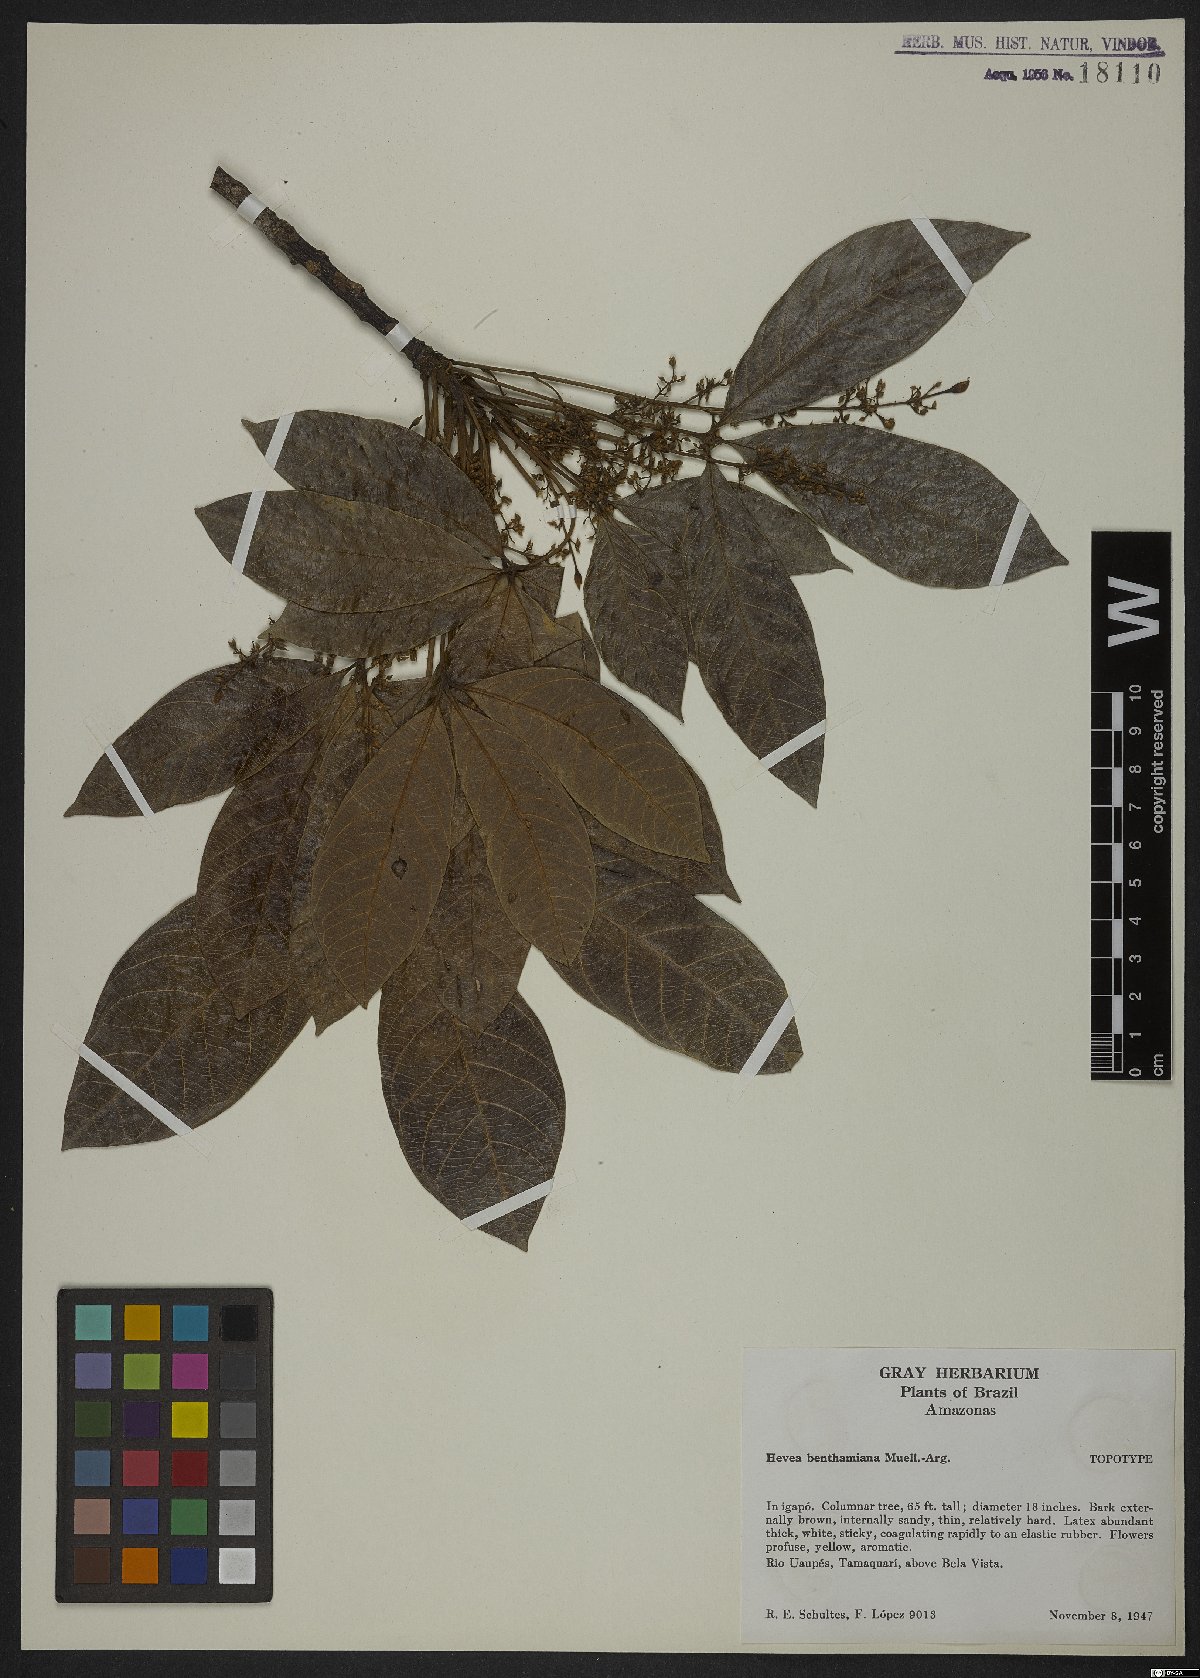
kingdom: Plantae
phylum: Tracheophyta
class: Magnoliopsida
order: Malpighiales
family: Euphorbiaceae
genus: Hevea
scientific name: Hevea benthamiana
